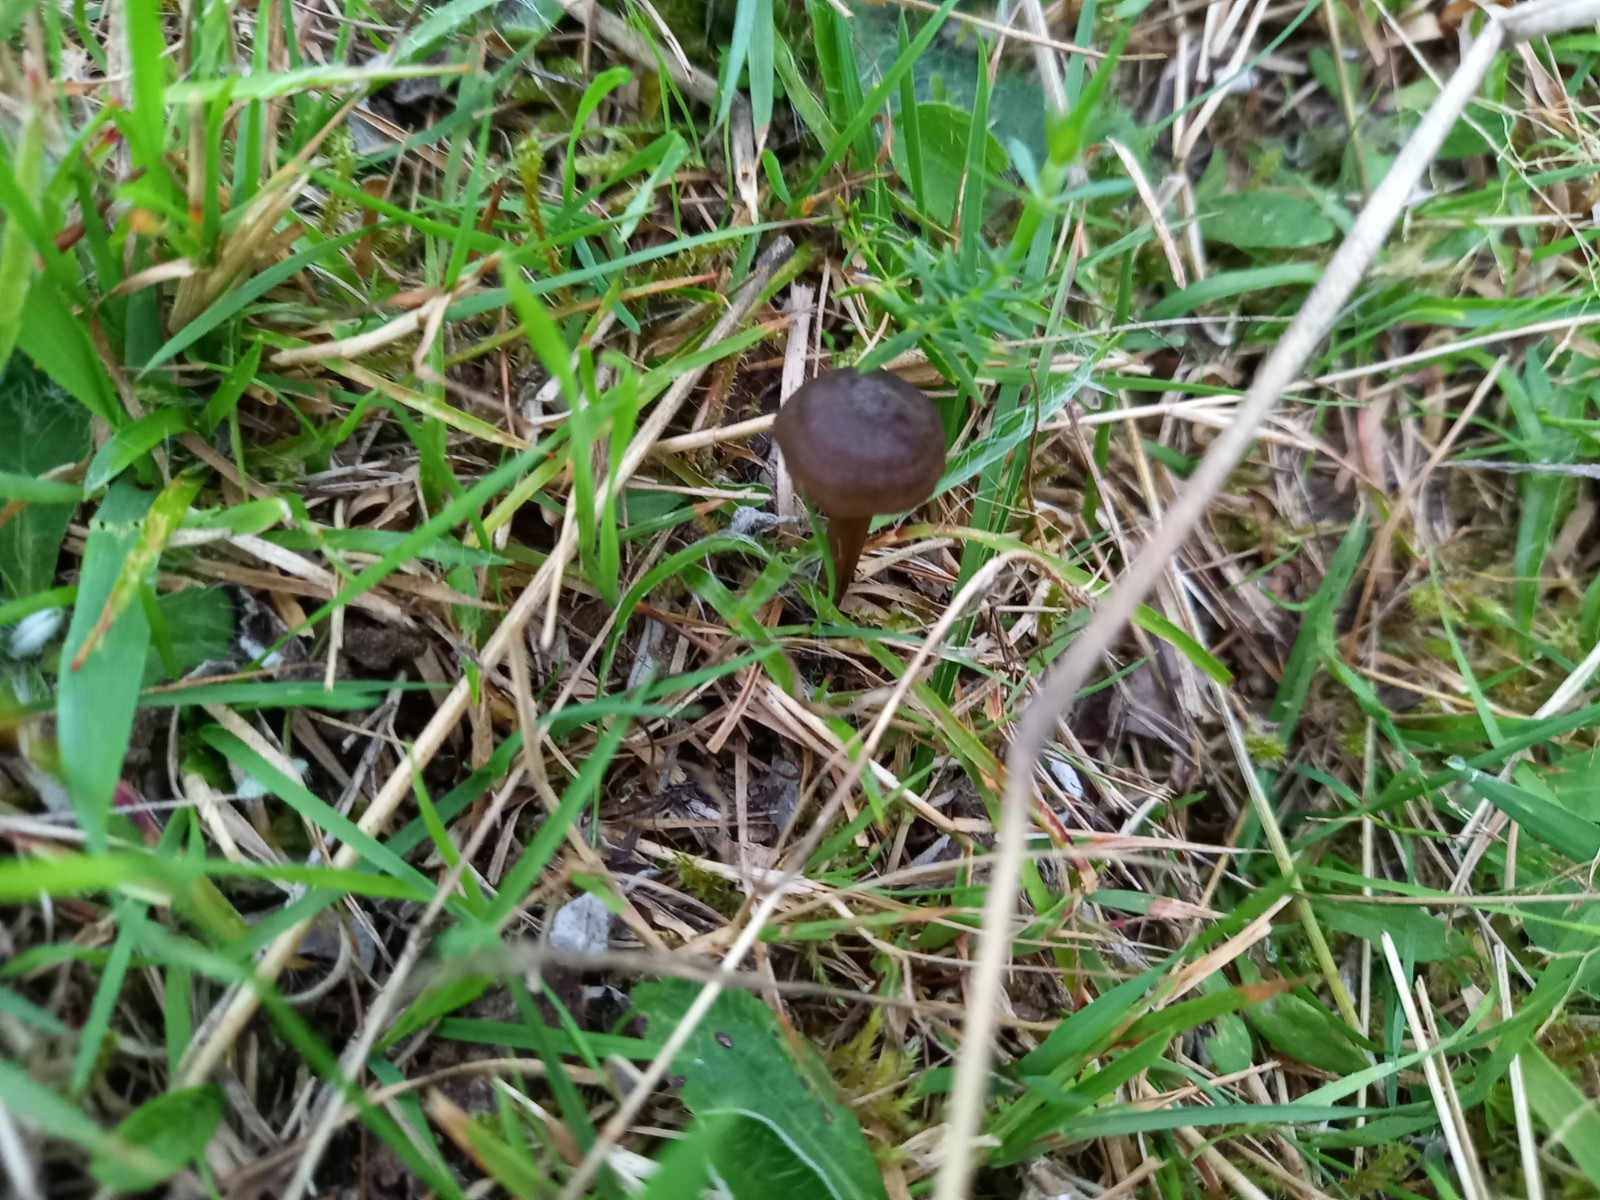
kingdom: Fungi
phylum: Basidiomycota
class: Agaricomycetes
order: Agaricales
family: Entolomataceae
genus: Entoloma
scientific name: Entoloma
